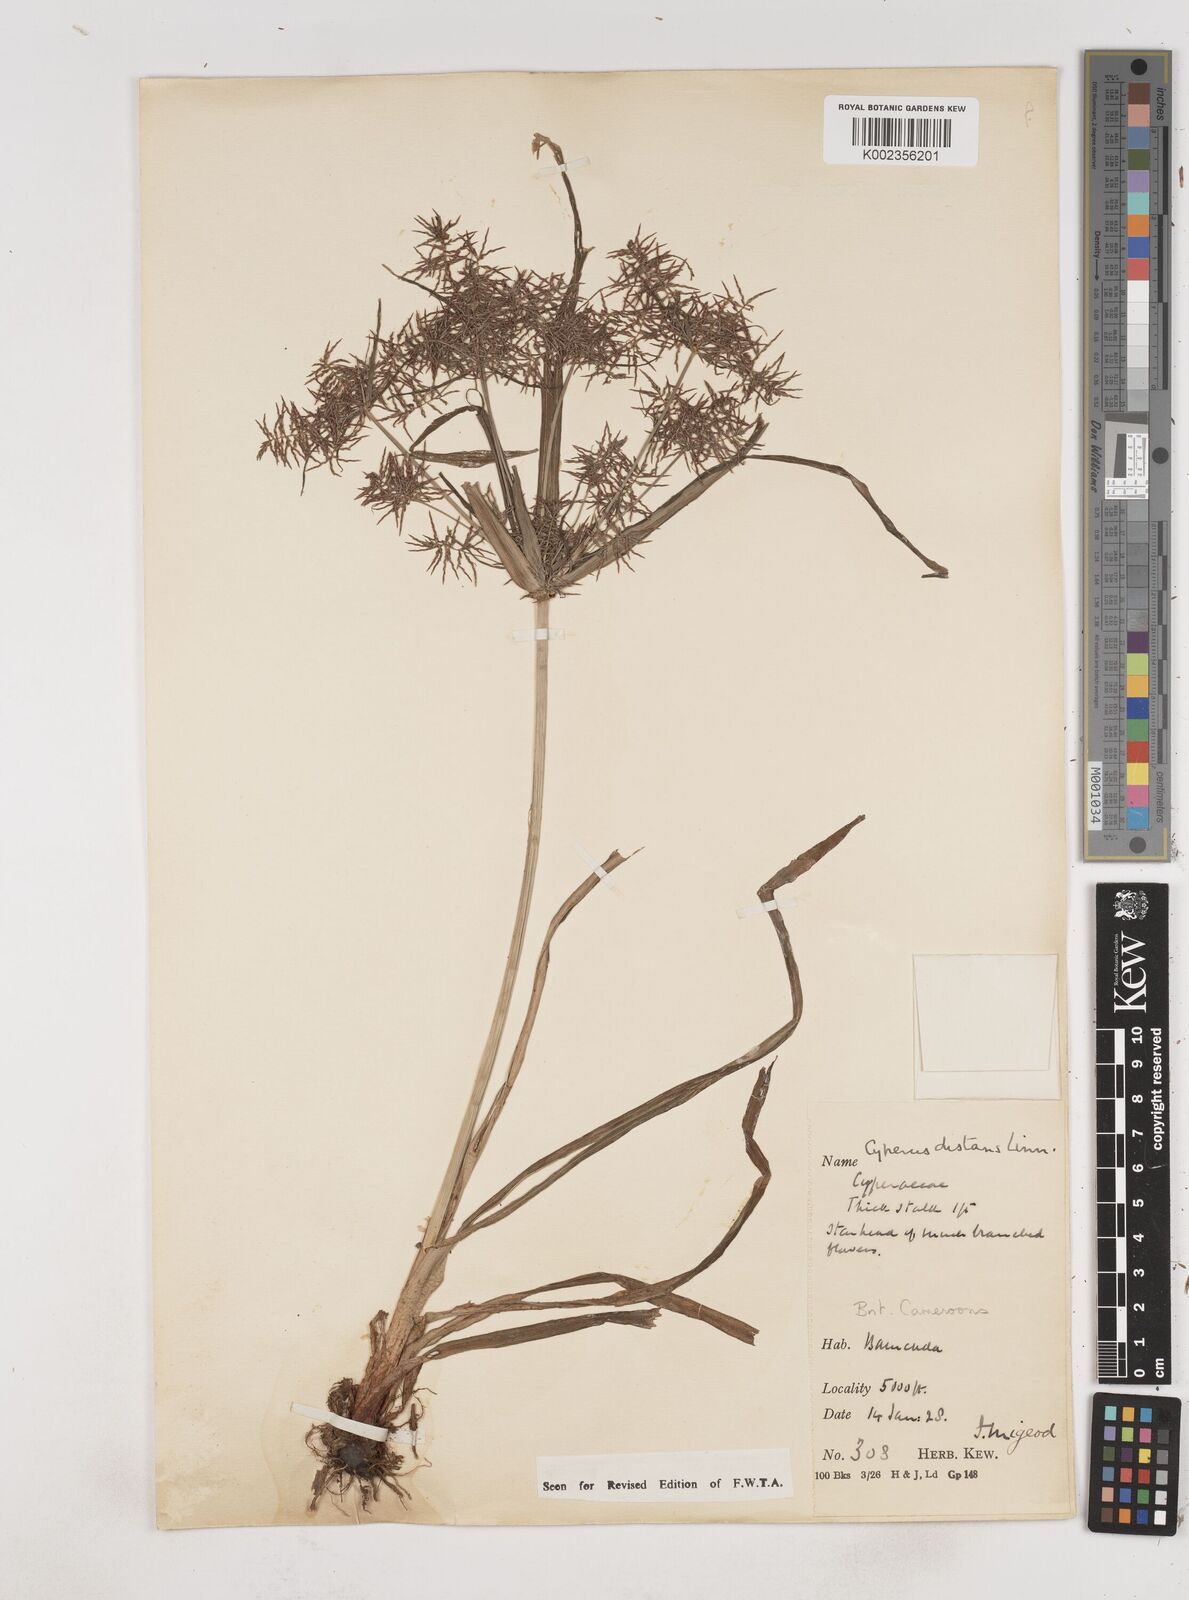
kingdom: Plantae
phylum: Tracheophyta
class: Liliopsida
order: Poales
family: Cyperaceae
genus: Cyperus
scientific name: Cyperus distans
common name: Slender cyperus
